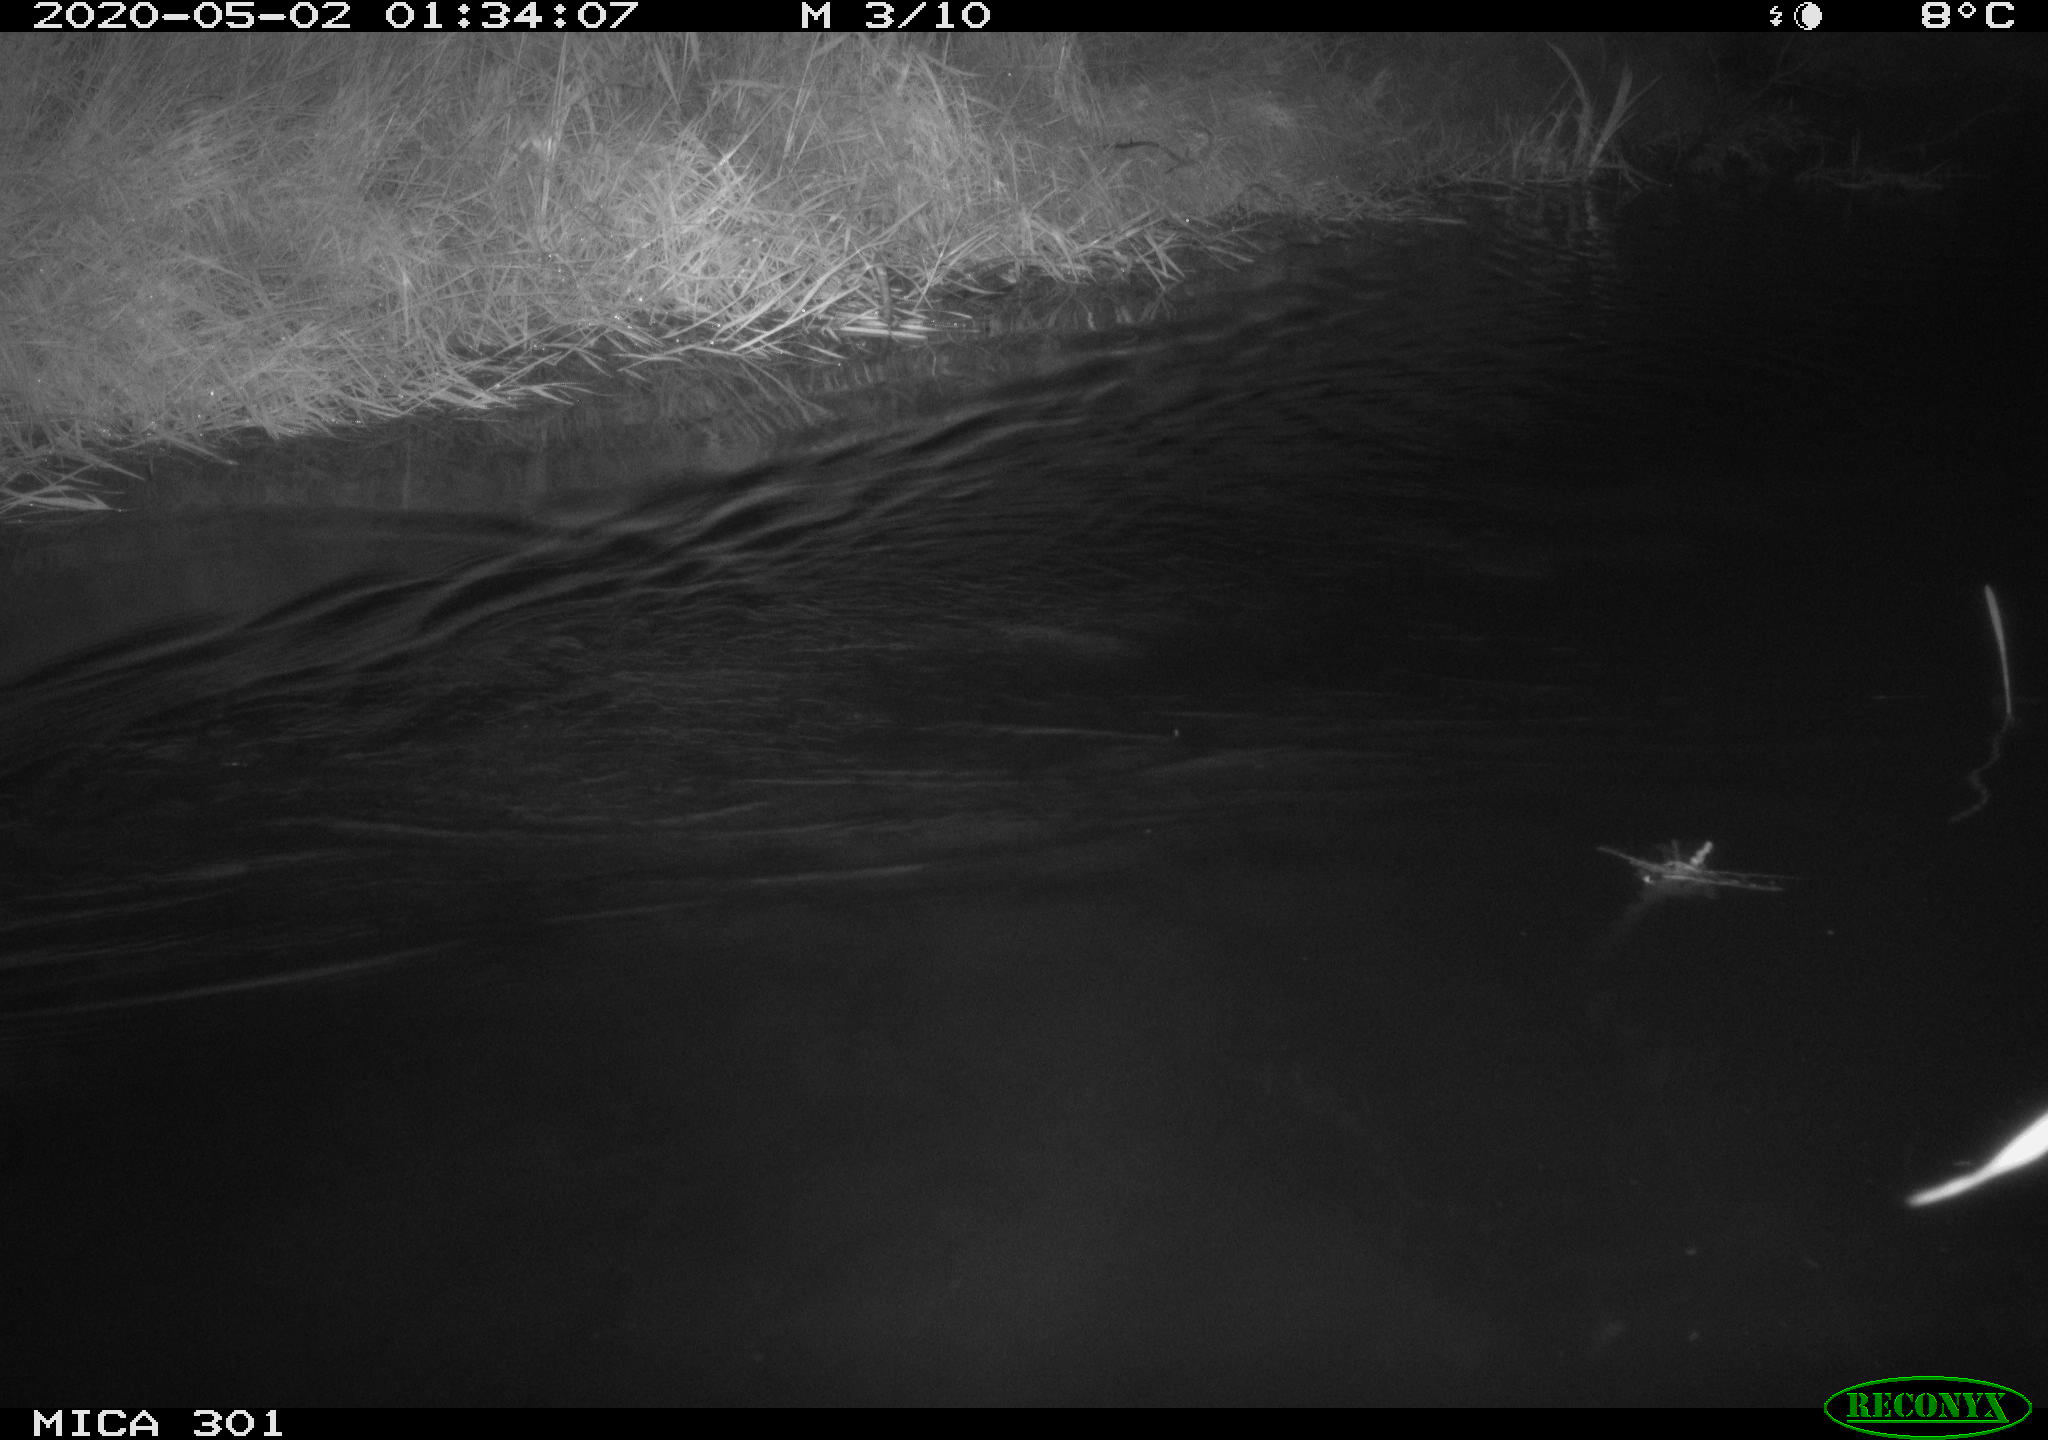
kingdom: Animalia
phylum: Chordata
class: Mammalia
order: Rodentia
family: Castoridae
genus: Castor
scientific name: Castor fiber
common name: Eurasian beaver
